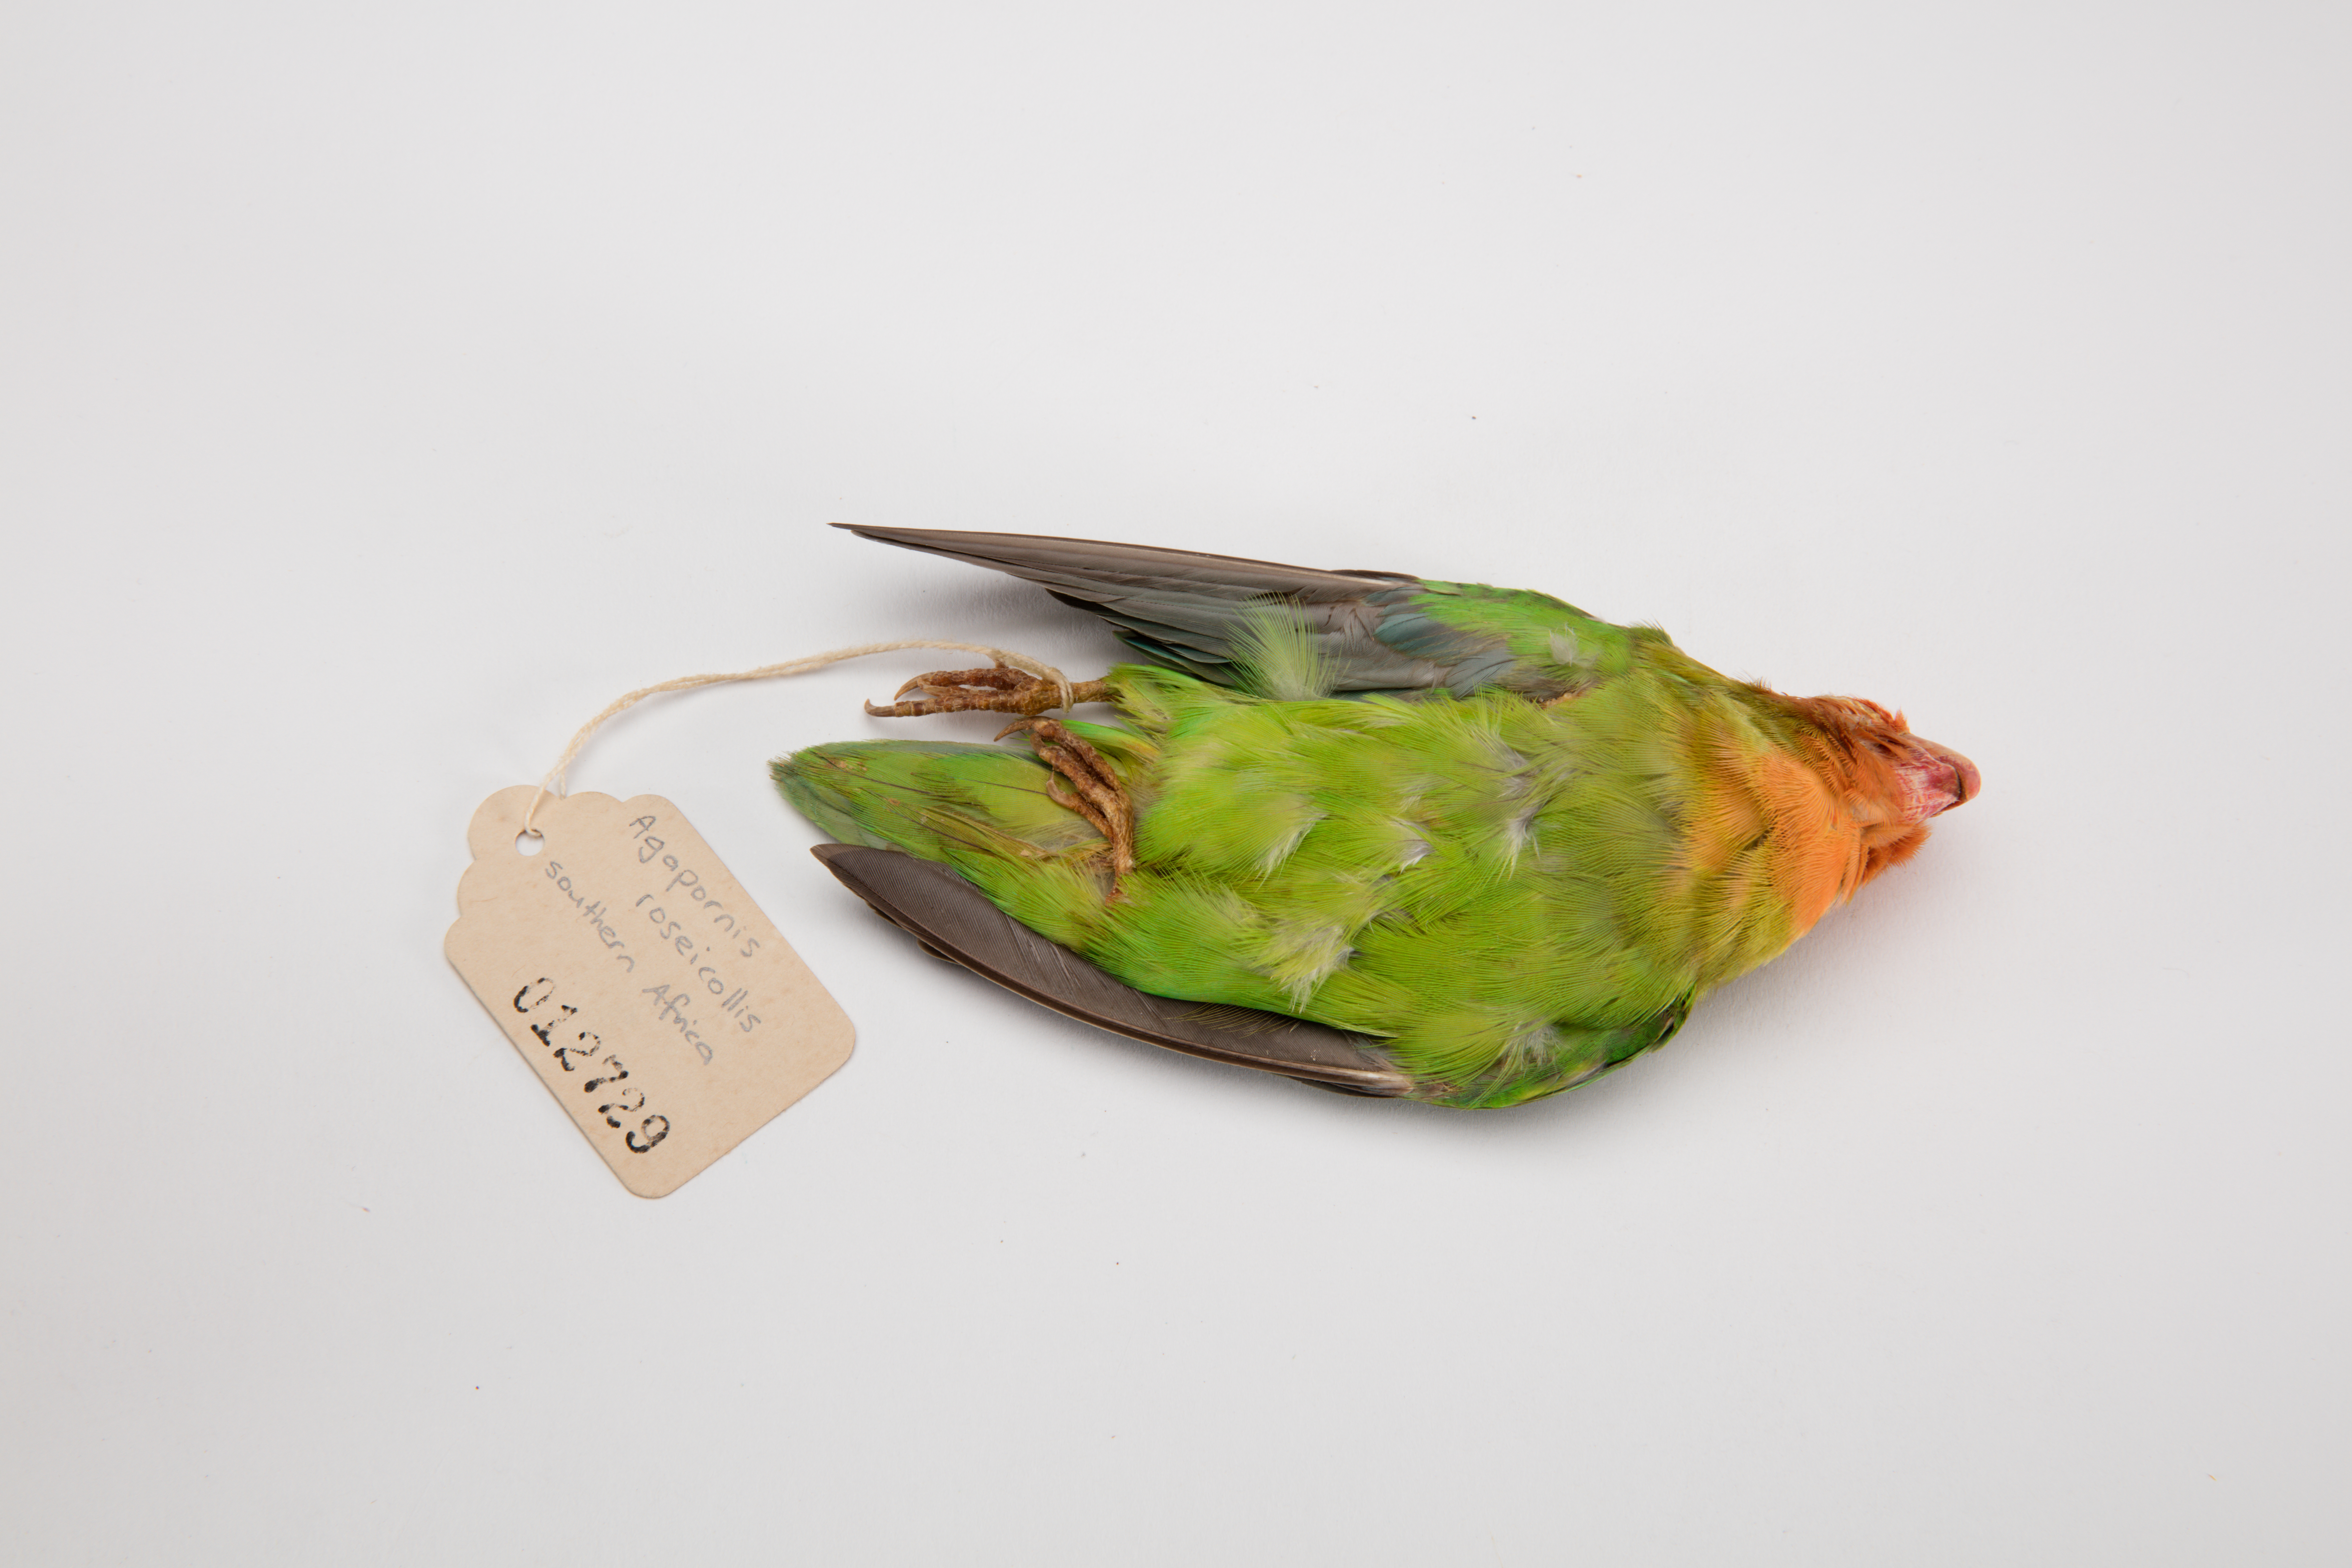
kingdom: Animalia
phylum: Chordata
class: Aves
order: Psittaciformes
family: Psittacidae
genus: Agapornis
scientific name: Agapornis roseicollis
